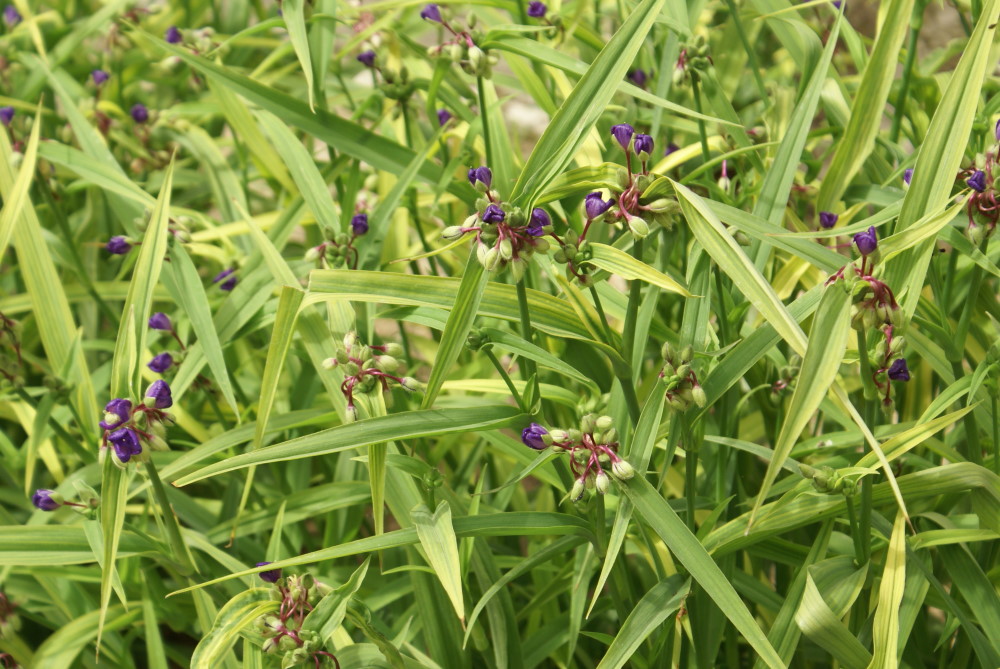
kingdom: Plantae
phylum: Tracheophyta
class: Liliopsida
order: Commelinales
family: Commelinaceae
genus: Tradescantia
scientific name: Tradescantia virginiana
